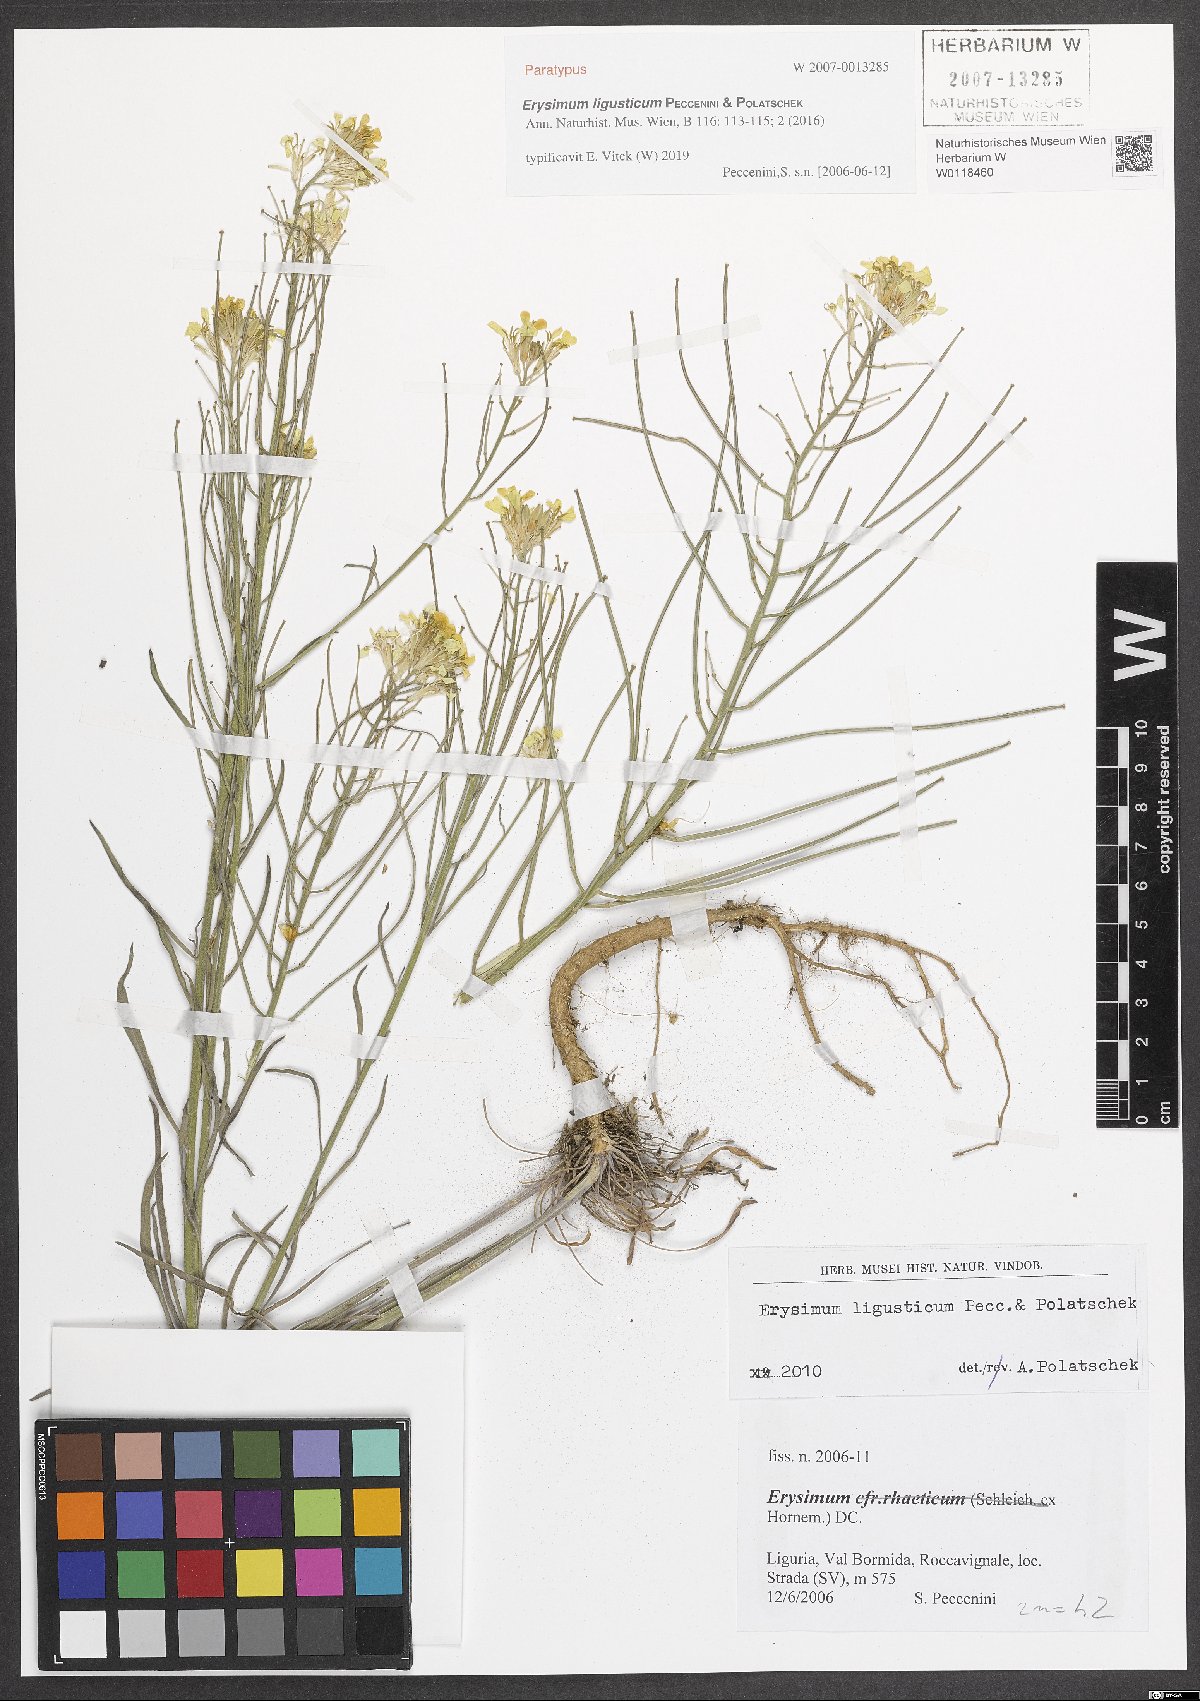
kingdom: Plantae
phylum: Tracheophyta
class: Magnoliopsida
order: Brassicales
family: Brassicaceae
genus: Erysimum
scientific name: Erysimum ligusticum
